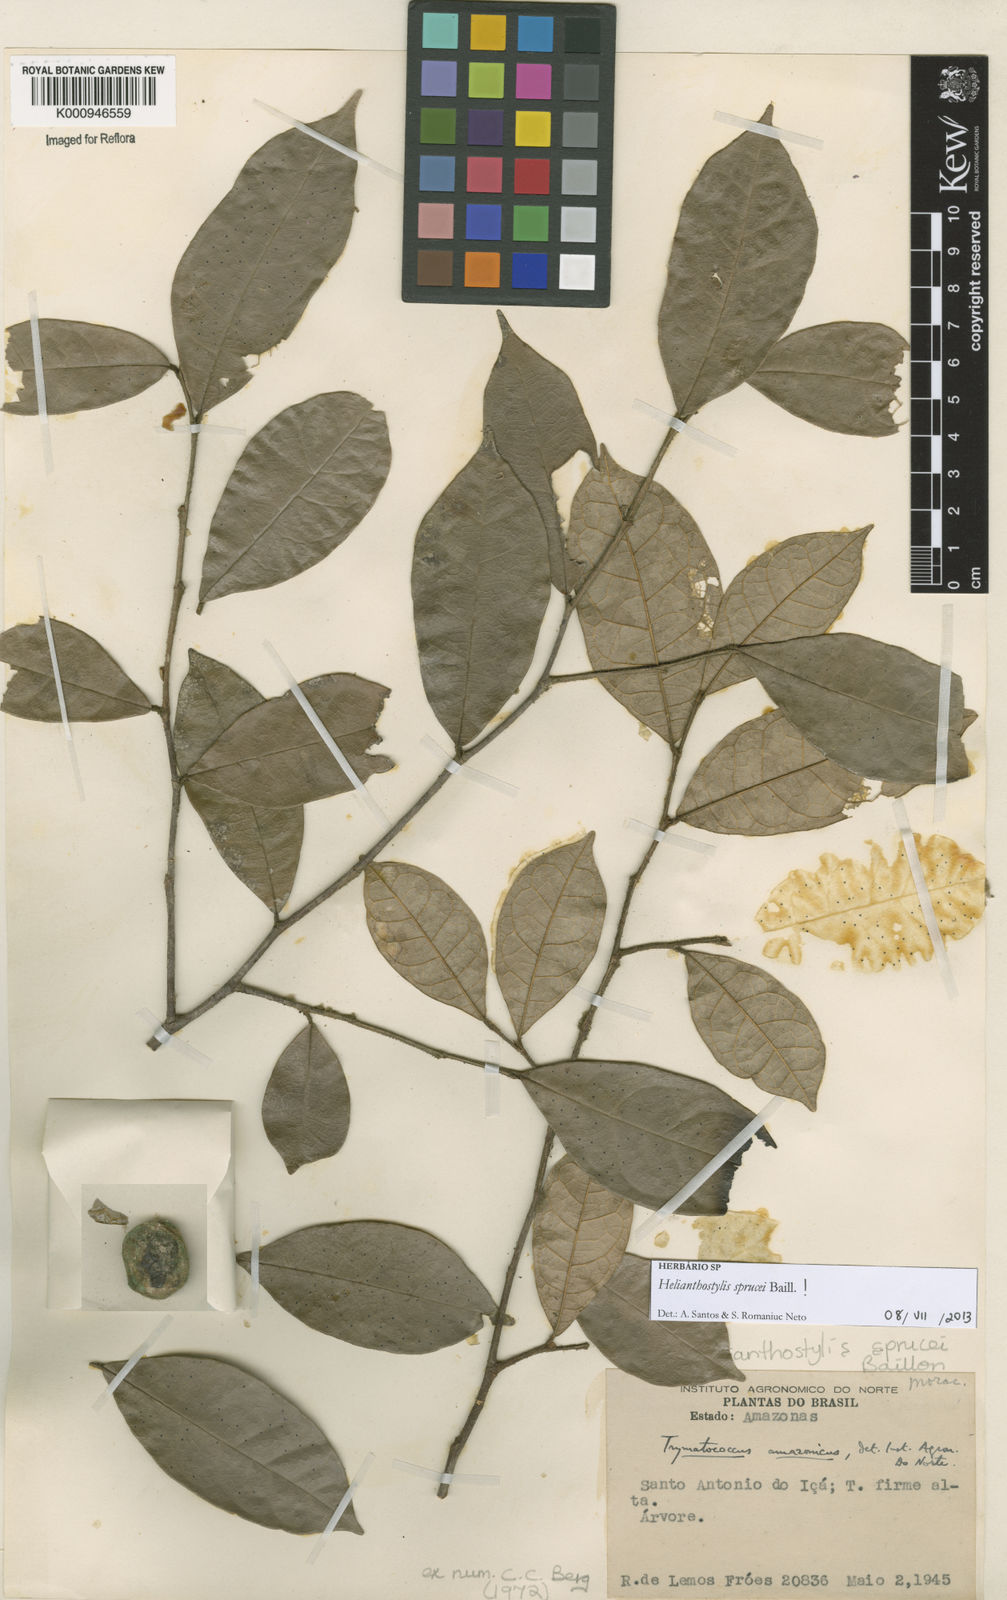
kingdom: Plantae
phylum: Tracheophyta
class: Magnoliopsida
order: Rosales
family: Moraceae
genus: Brosimum
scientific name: Brosimum sprucei
